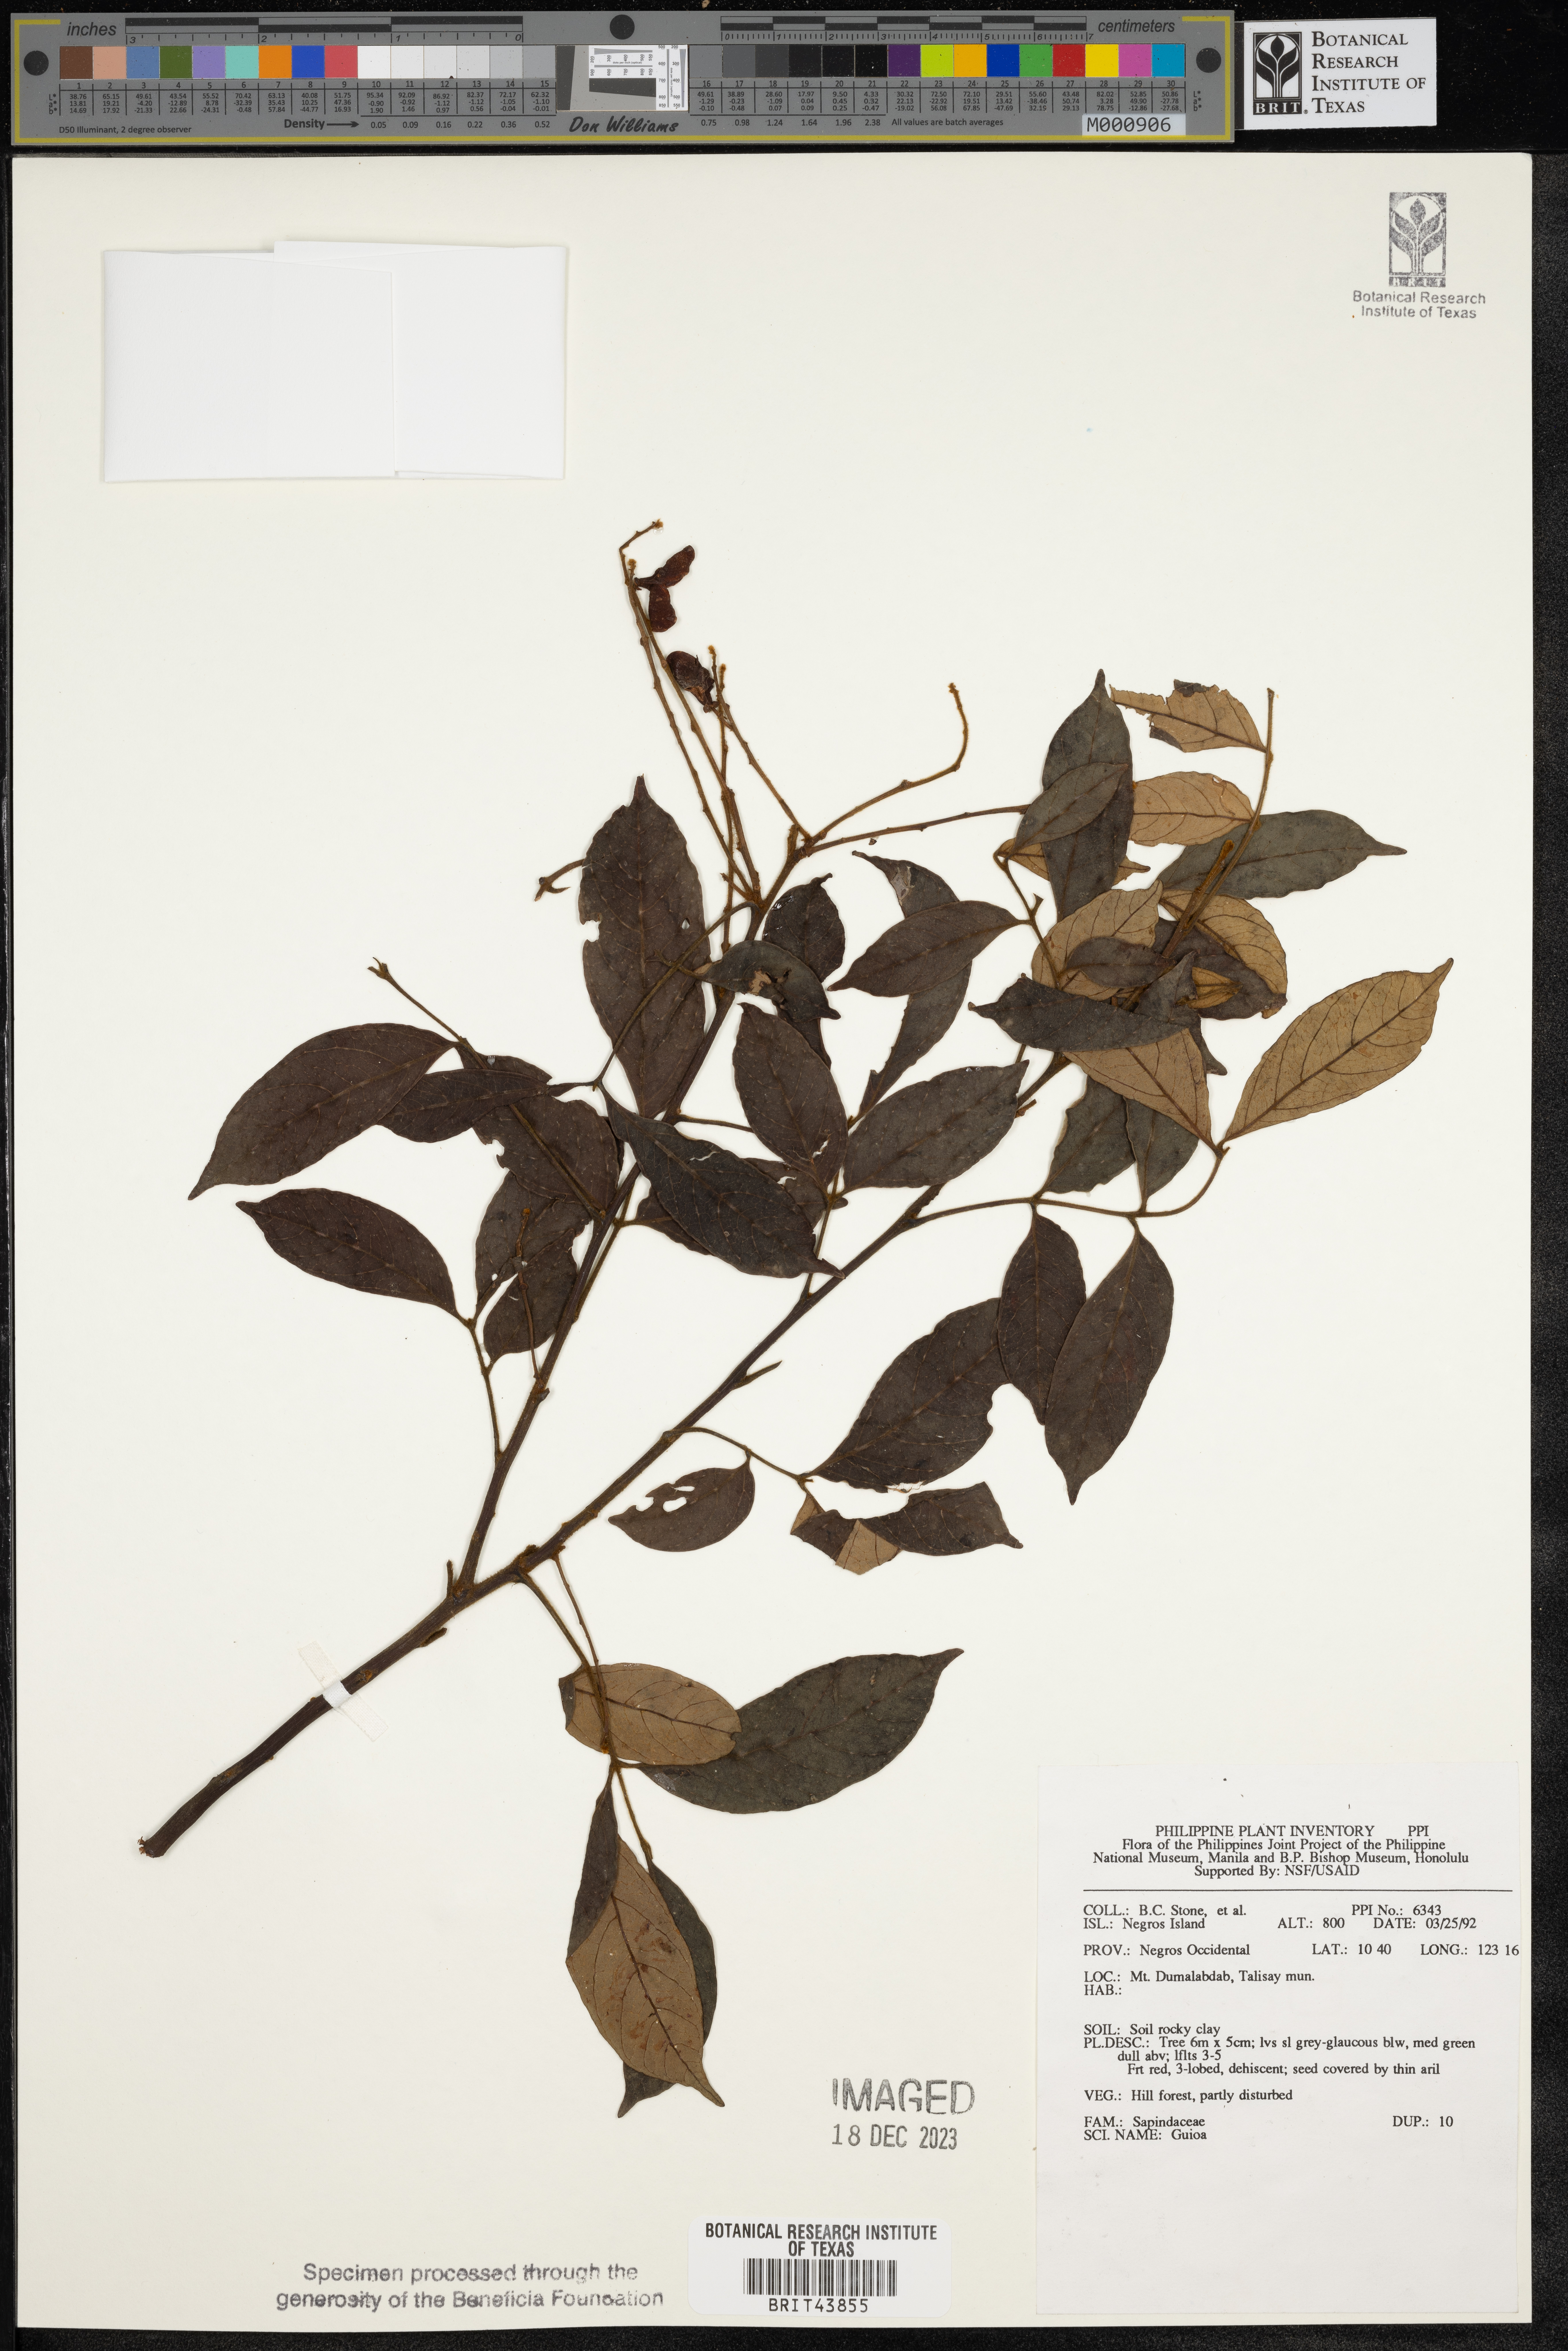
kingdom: Plantae
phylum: Tracheophyta
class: Magnoliopsida
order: Sapindales
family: Sapindaceae
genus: Guioa
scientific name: Guioa
